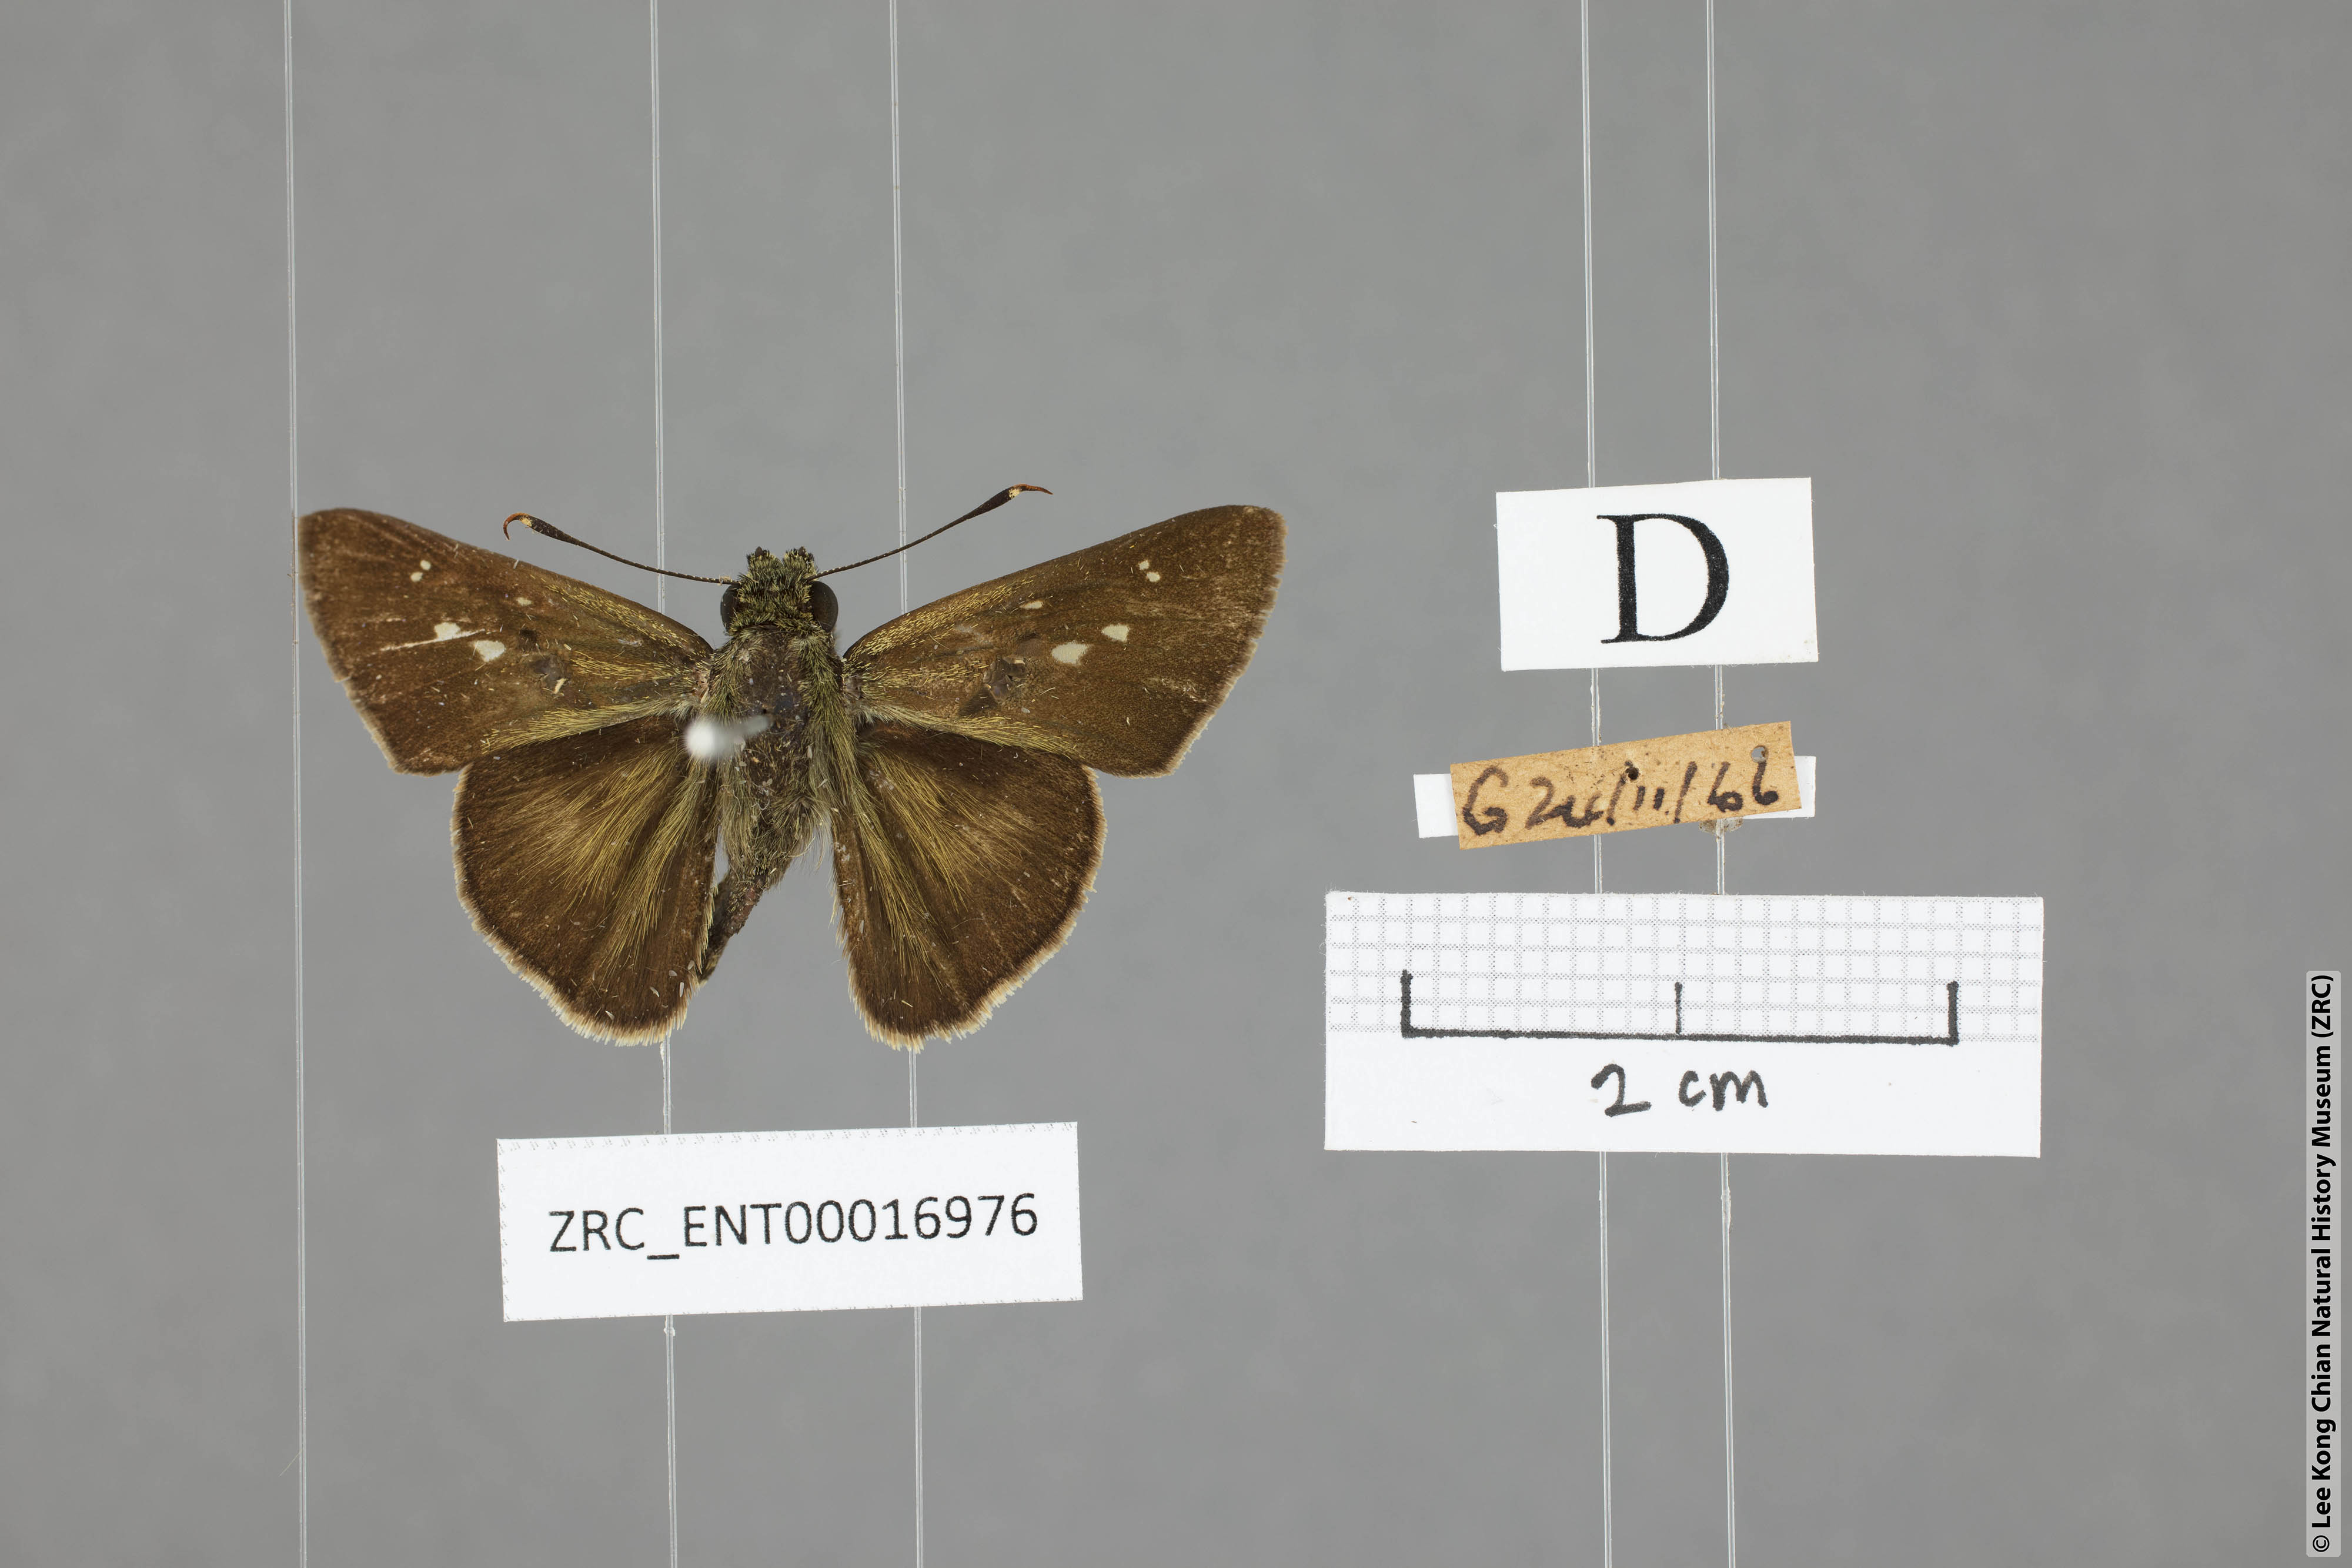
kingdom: Animalia
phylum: Arthropoda
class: Insecta
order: Lepidoptera
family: Hesperiidae
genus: Halpe
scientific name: Halpe elana
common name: Narrow-banded ace
